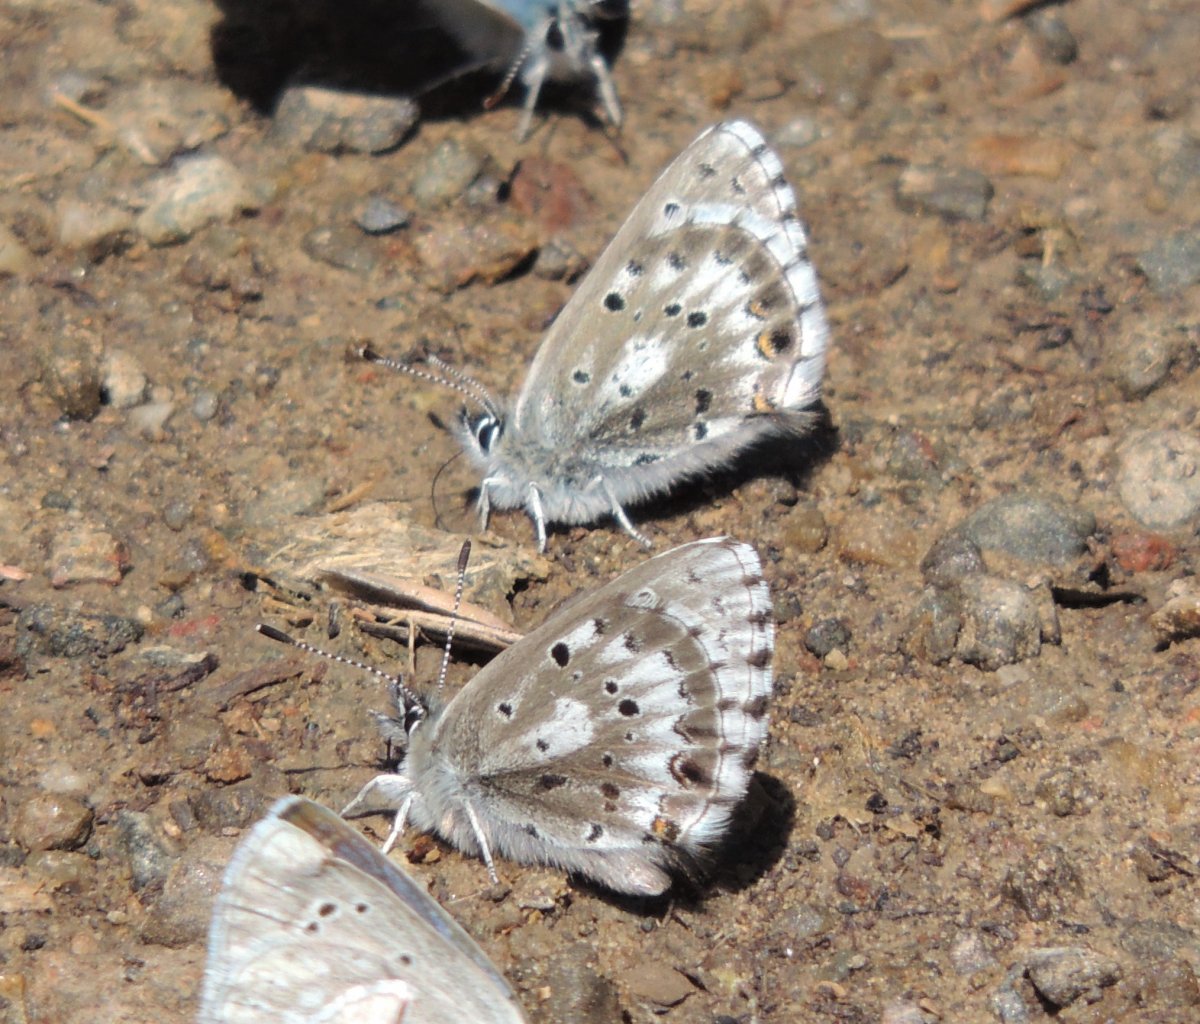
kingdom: Animalia
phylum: Arthropoda
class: Insecta
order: Lepidoptera
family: Lycaenidae
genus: Glaucopsyche
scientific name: Glaucopsyche piasus
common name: Arrowhead Blue
